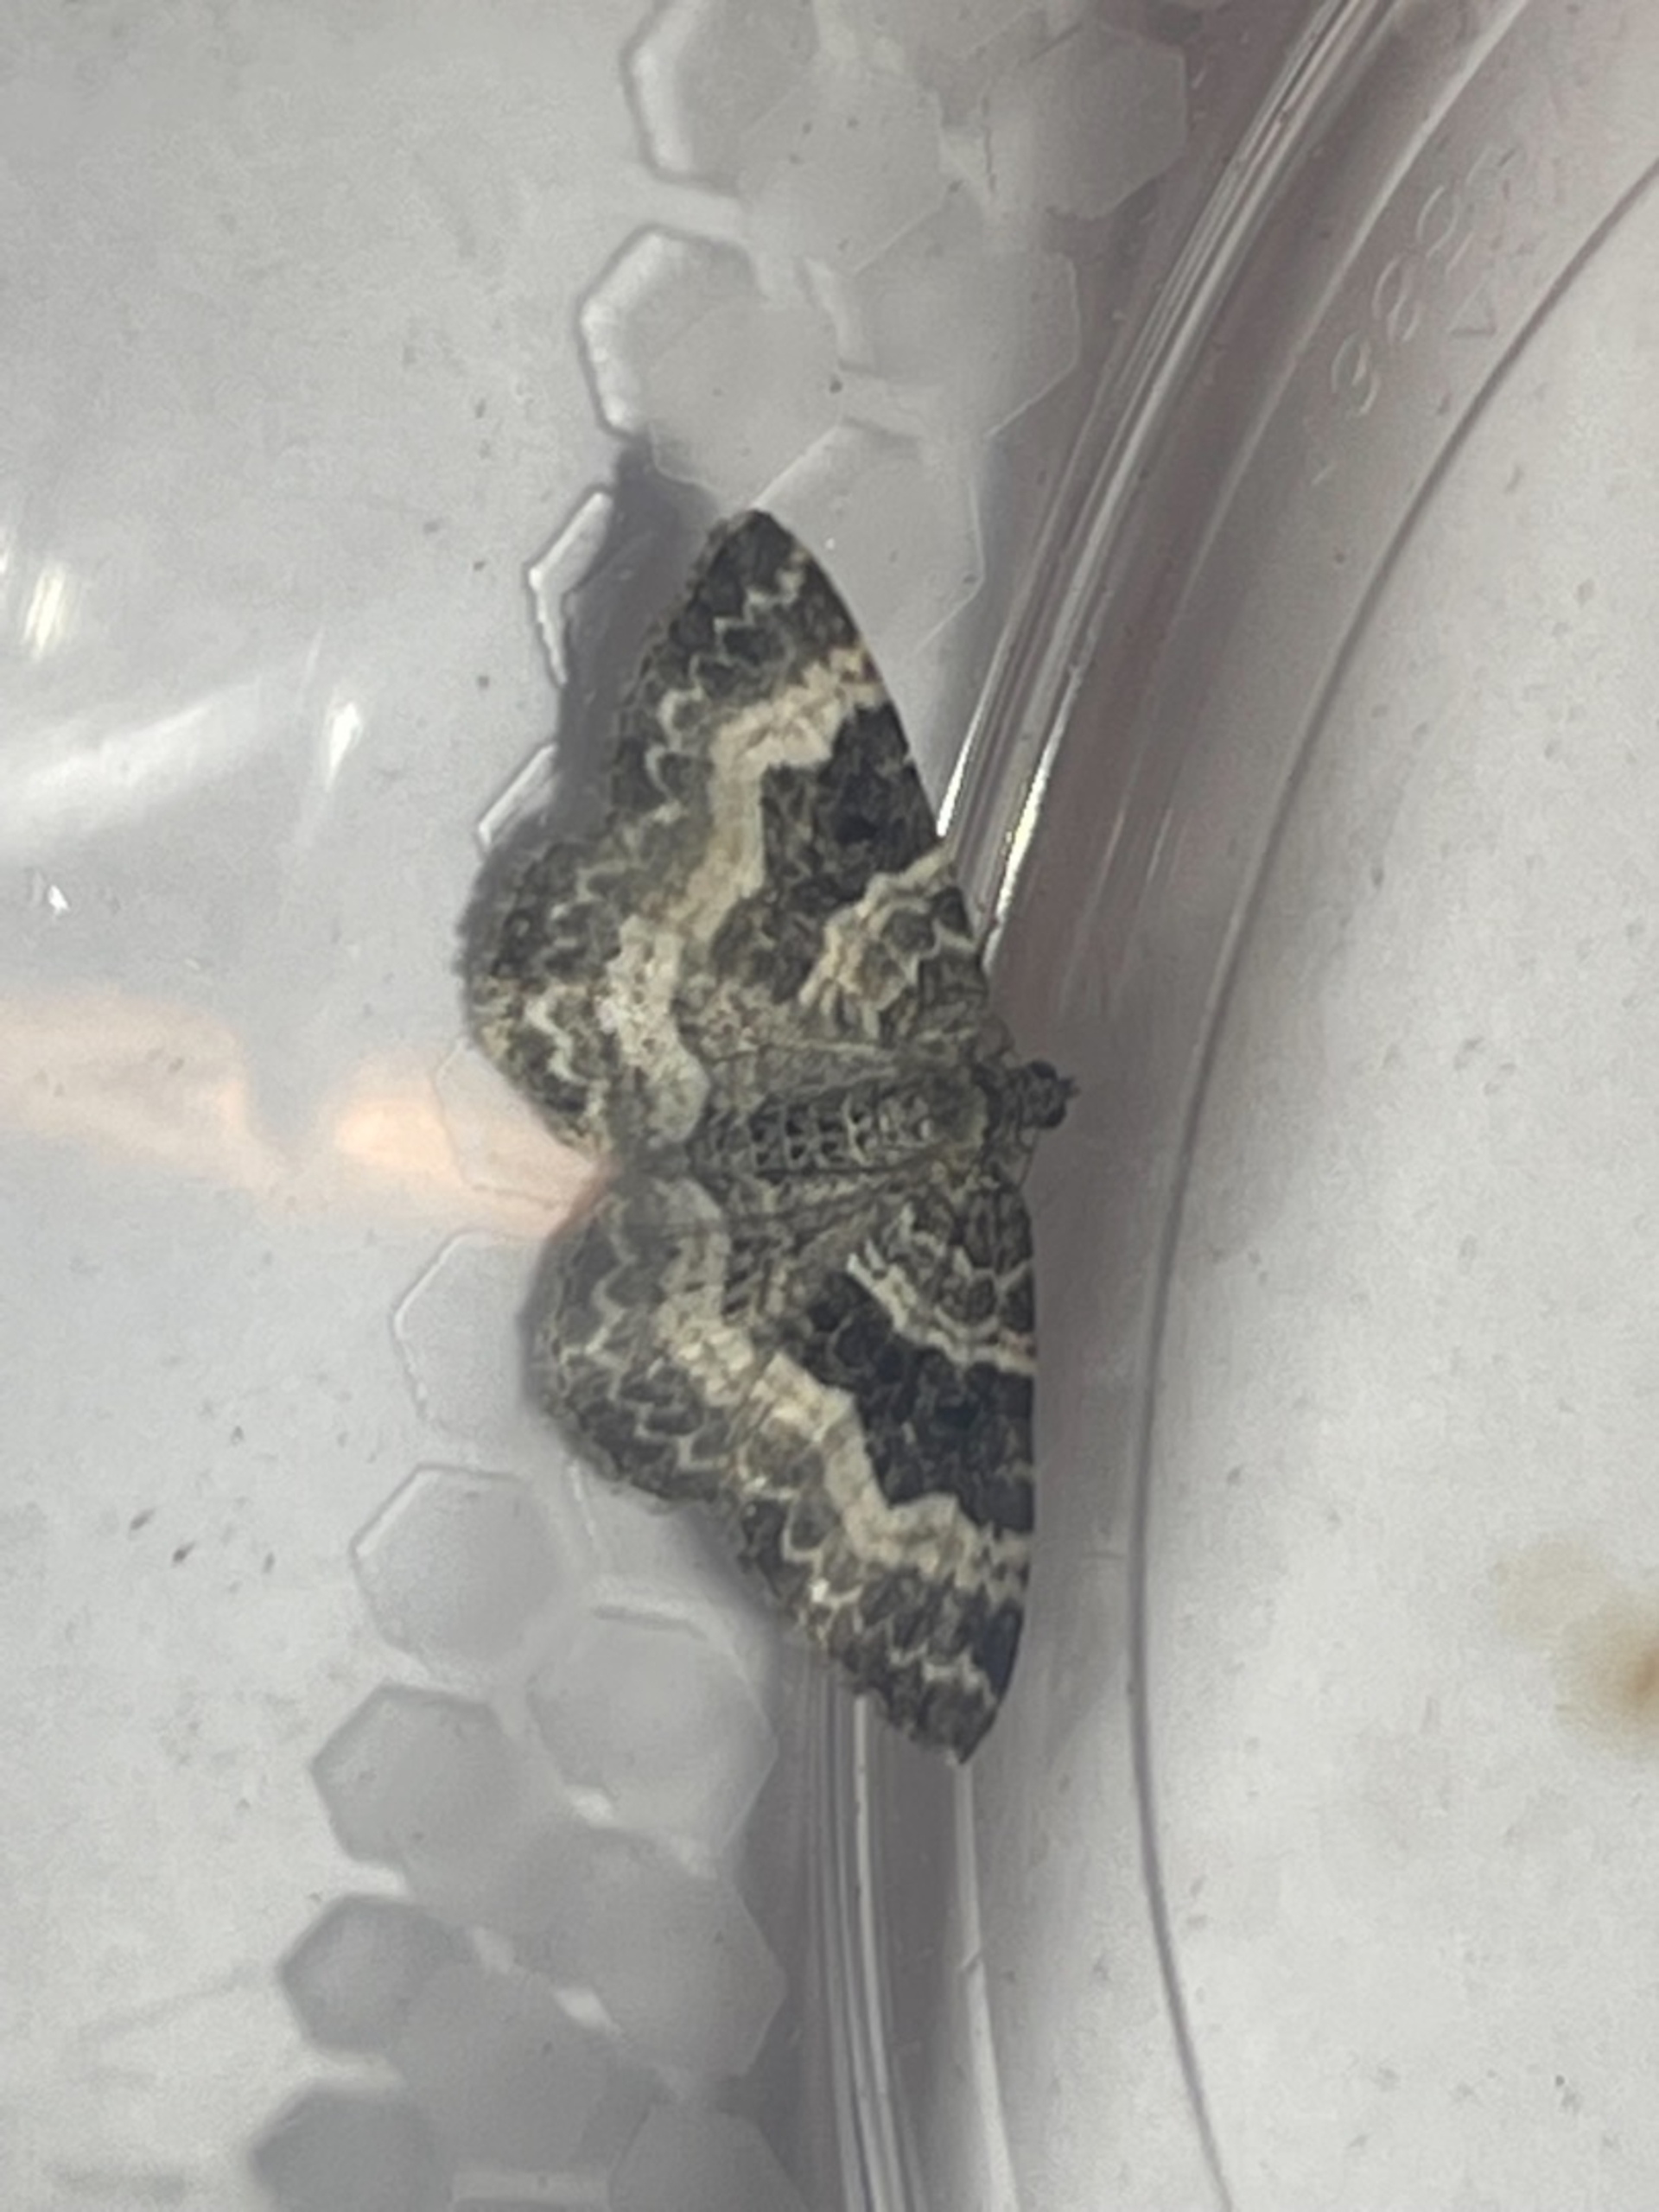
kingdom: Animalia
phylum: Arthropoda
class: Insecta
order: Lepidoptera
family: Geometridae
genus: Epirrhoe
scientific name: Epirrhoe alternata
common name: Almindelig bladmåler
